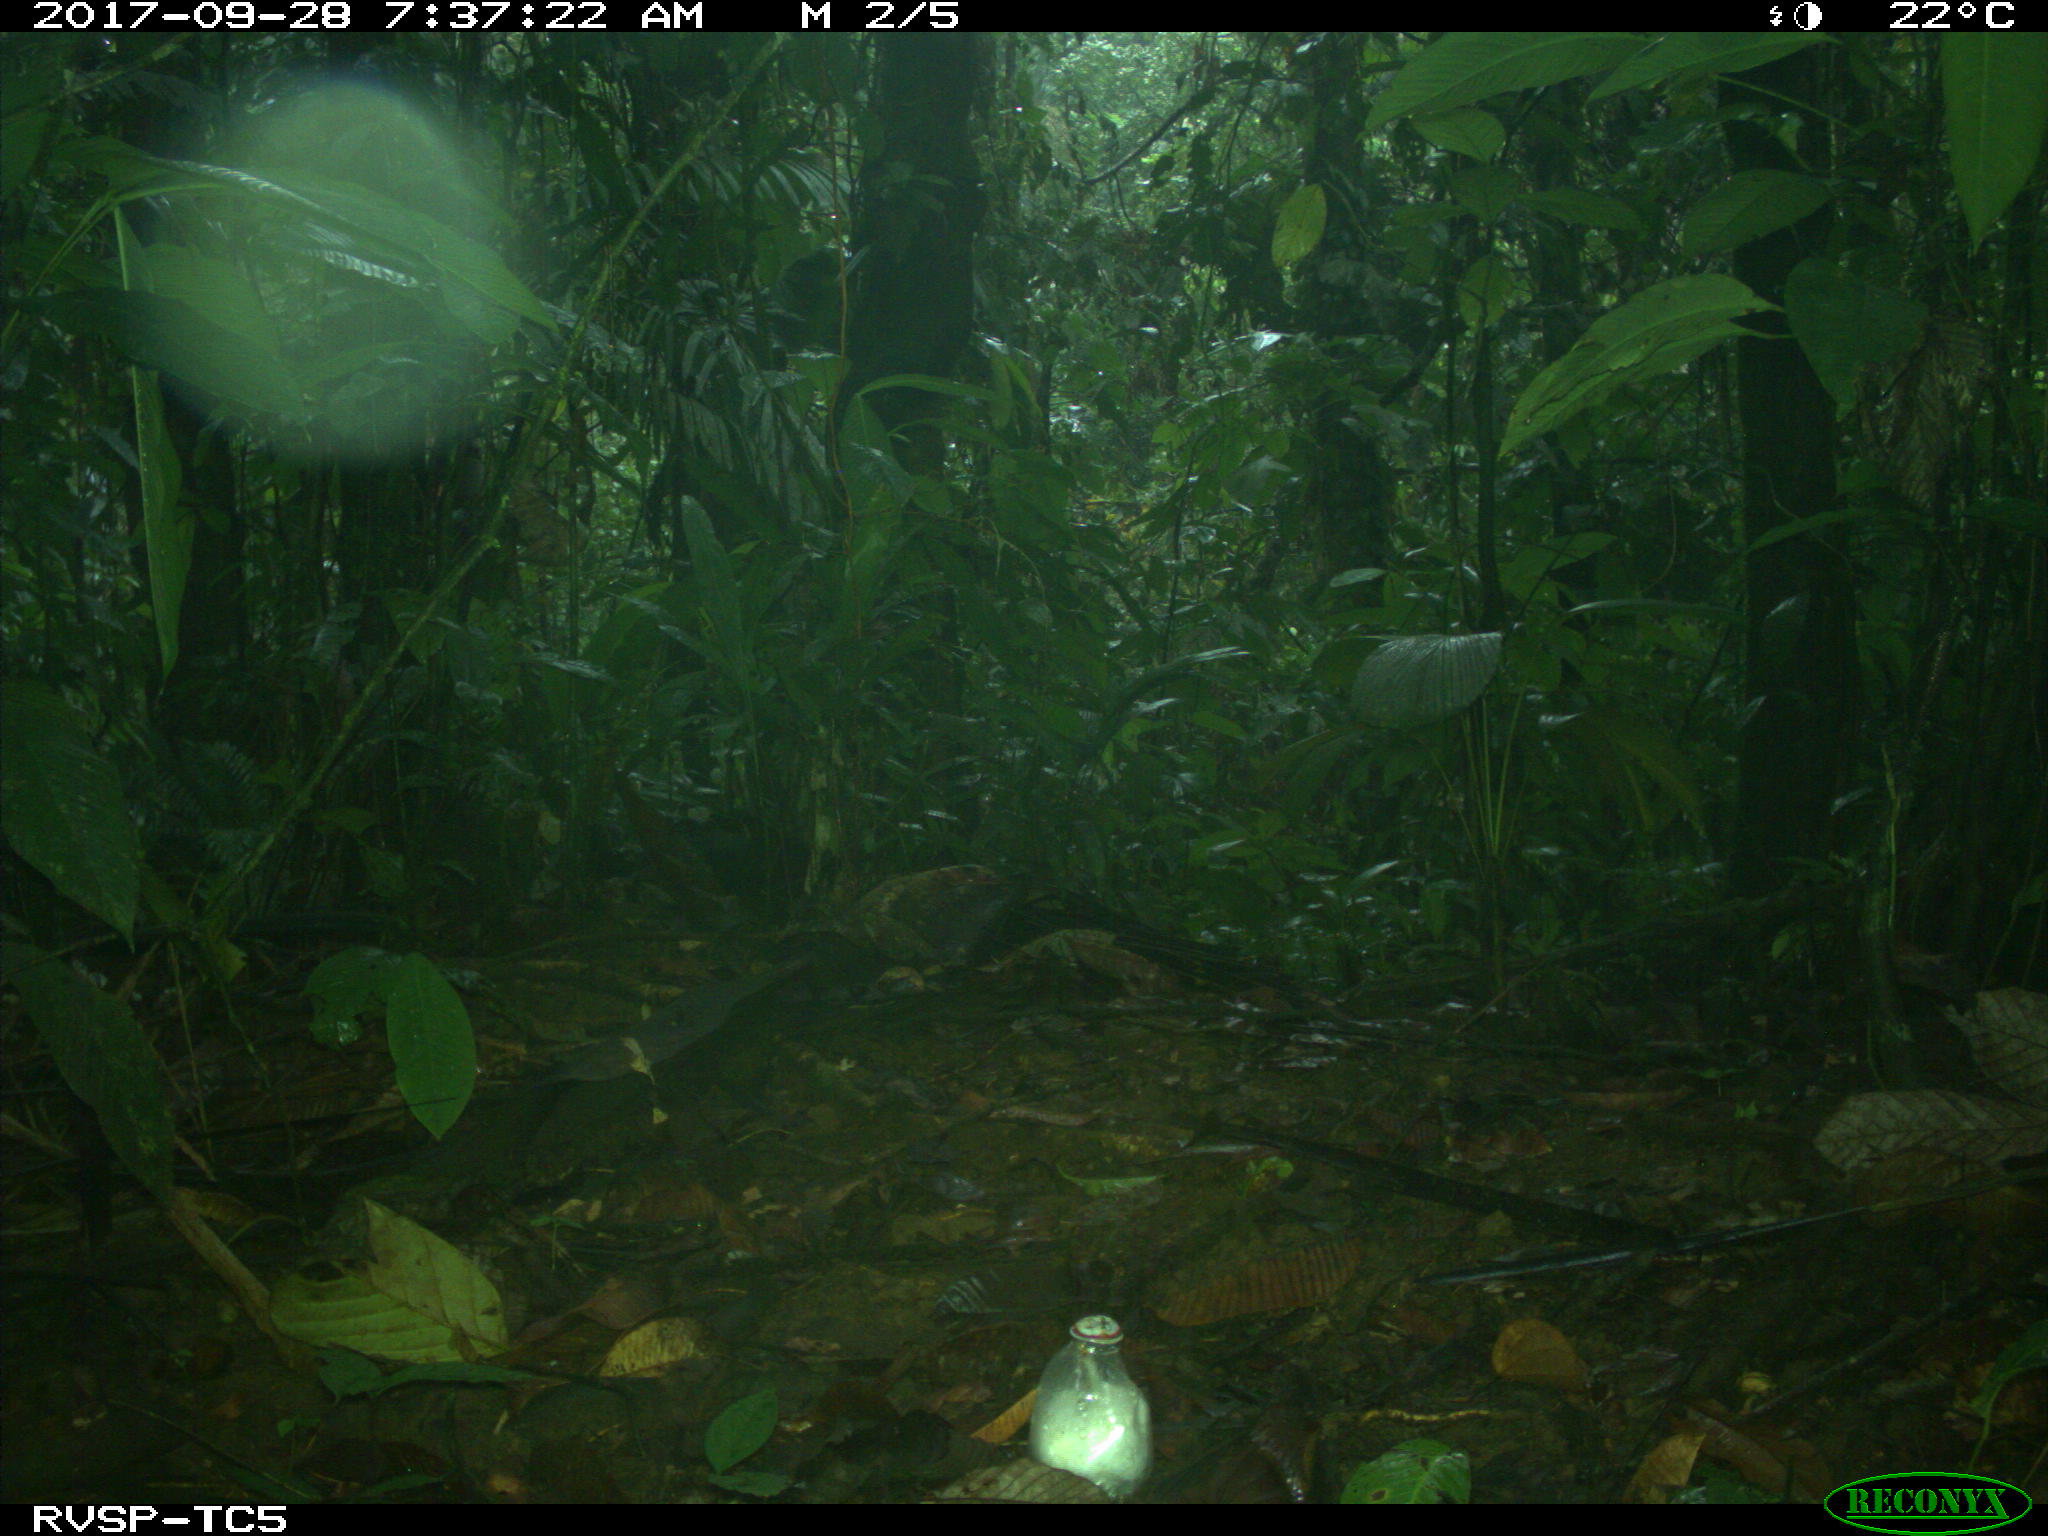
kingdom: Animalia
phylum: Chordata
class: Mammalia
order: Artiodactyla
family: Tayassuidae
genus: Tayassu
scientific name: Tayassu pecari
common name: White-lipped peccary
